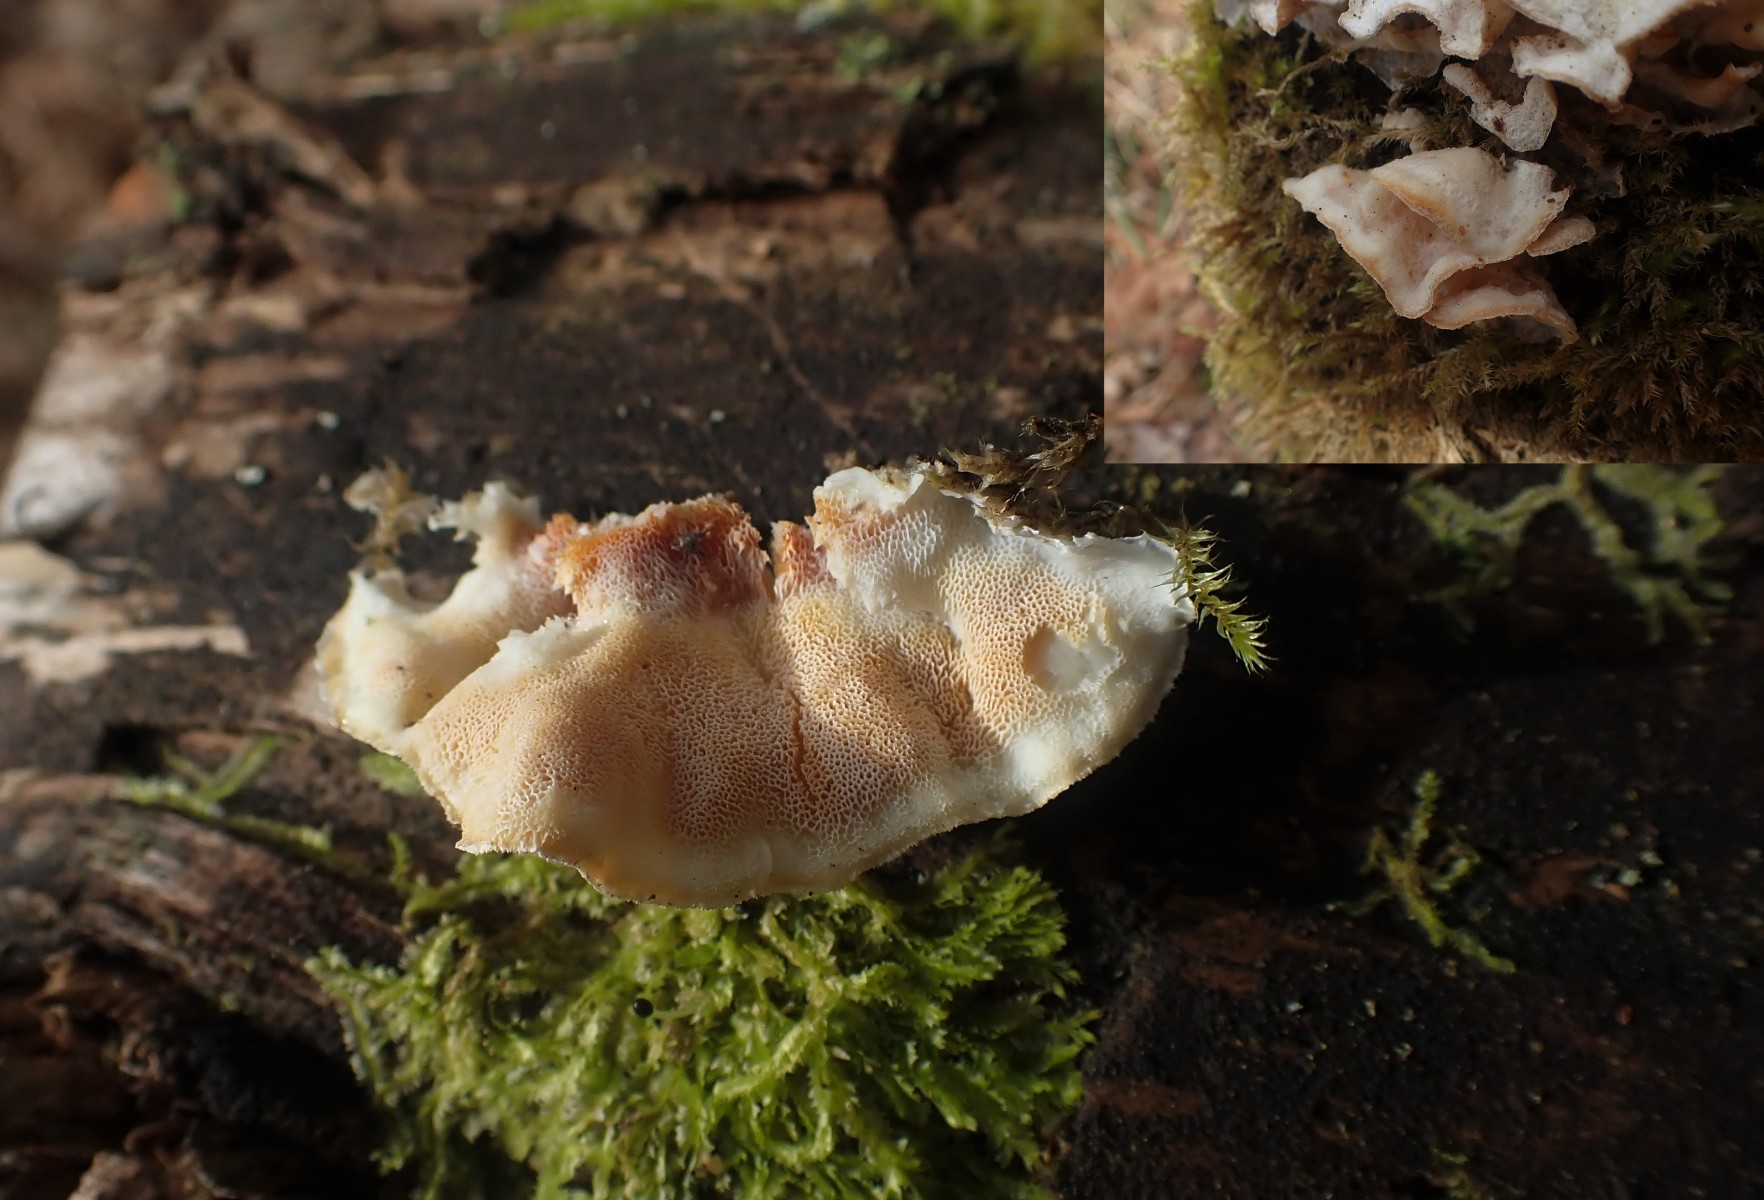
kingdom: Fungi
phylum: Basidiomycota
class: Agaricomycetes
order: Polyporales
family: Incrustoporiaceae
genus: Skeletocutis
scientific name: Skeletocutis amorpha
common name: orange krystalporesvamp
